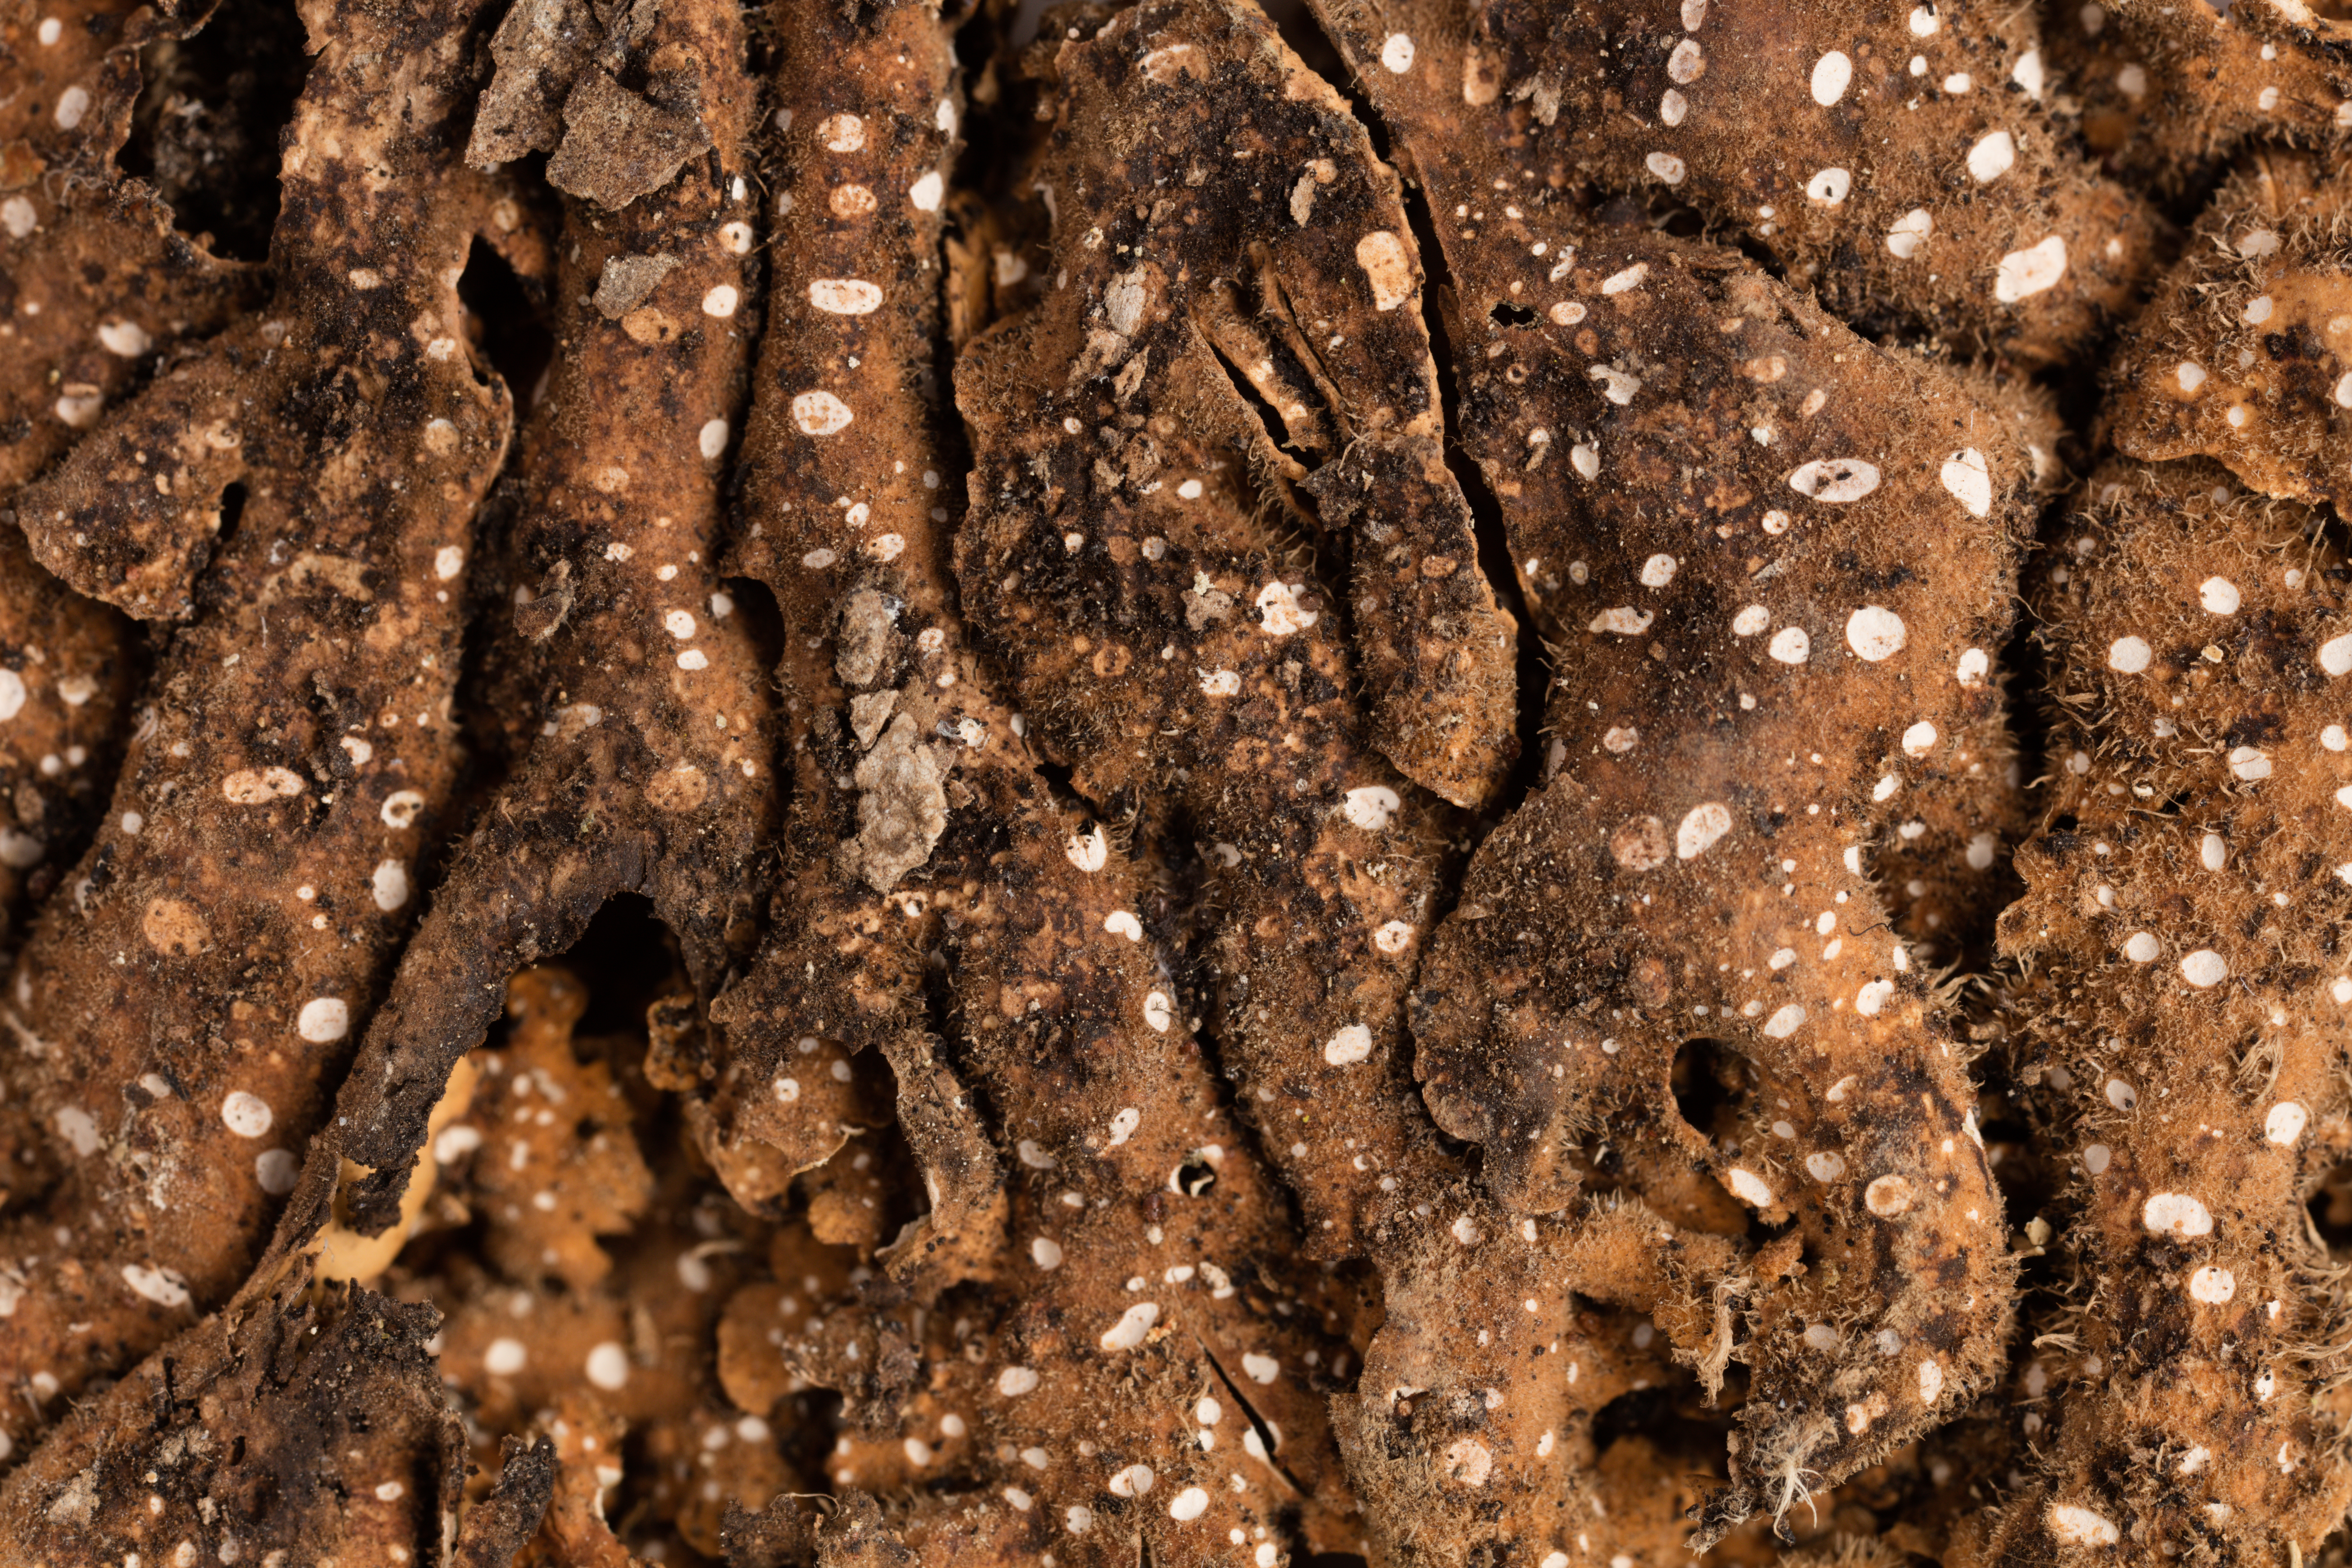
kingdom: Fungi
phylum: Ascomycota
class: Lecanoromycetes
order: Peltigerales
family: Lobariaceae
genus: Pseudocyphellaria
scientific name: Pseudocyphellaria coriacea
